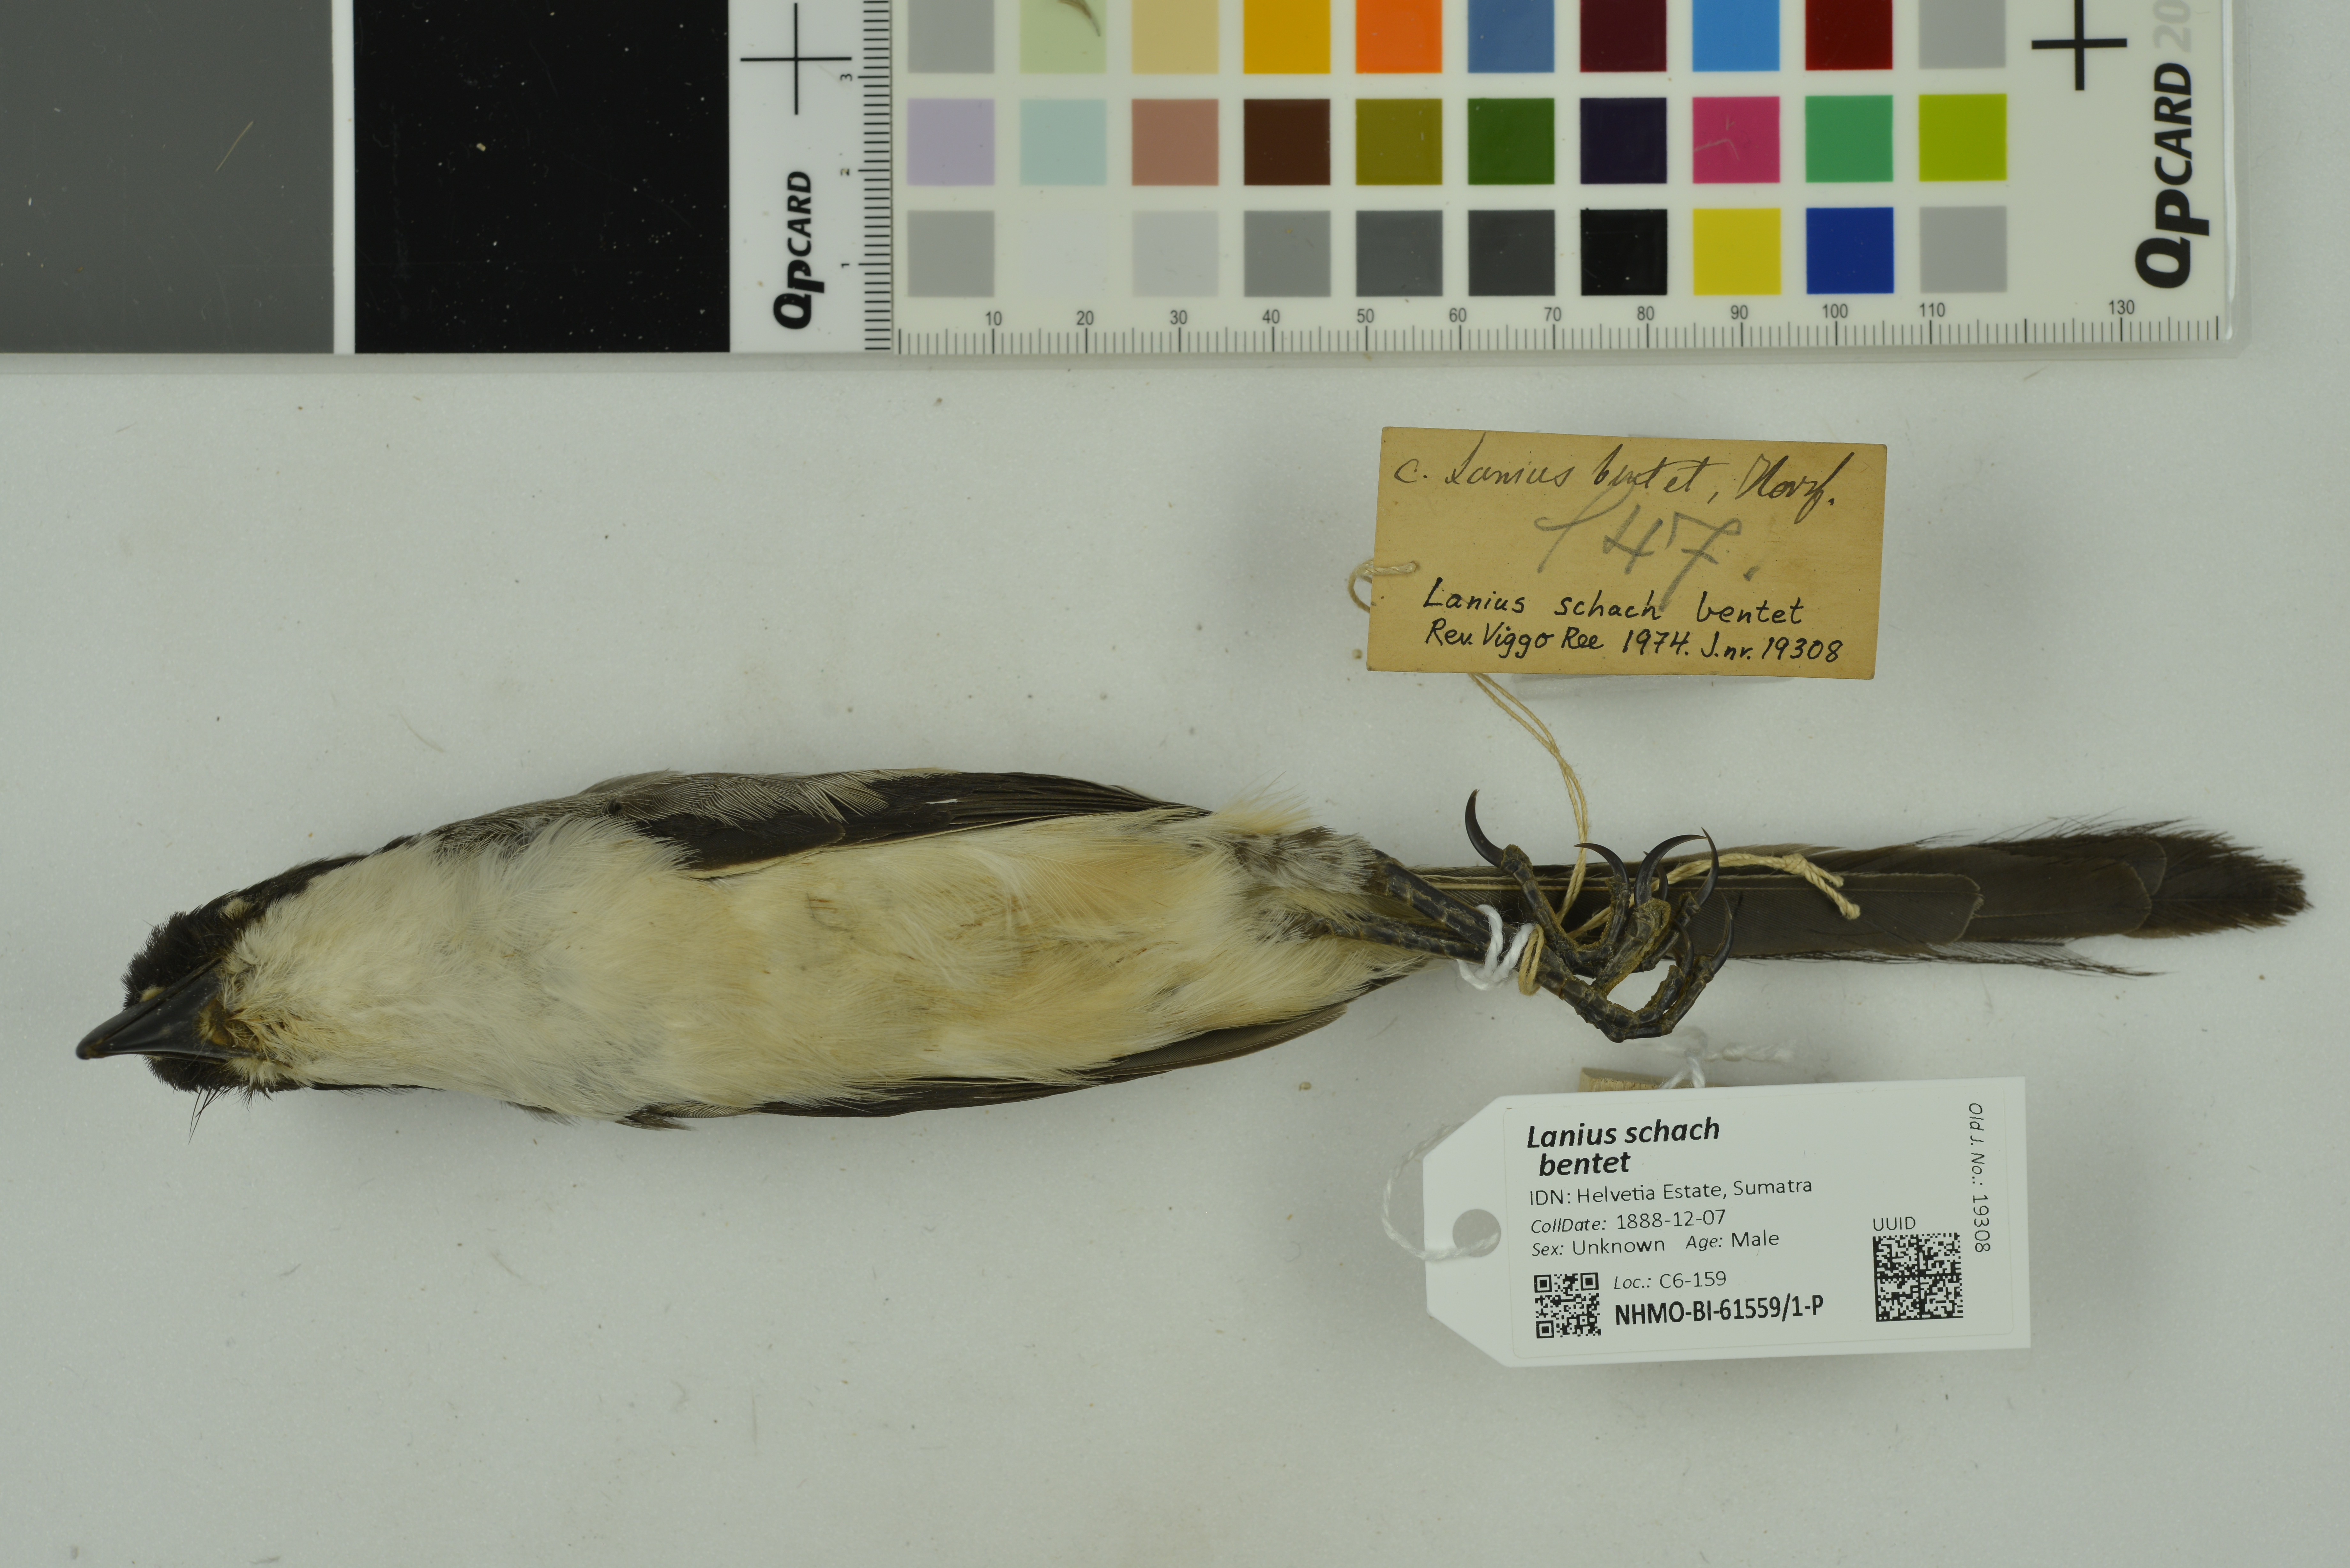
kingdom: Animalia
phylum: Chordata
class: Aves
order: Passeriformes
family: Laniidae
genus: Lanius
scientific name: Lanius schach
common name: Long-tailed shrike
